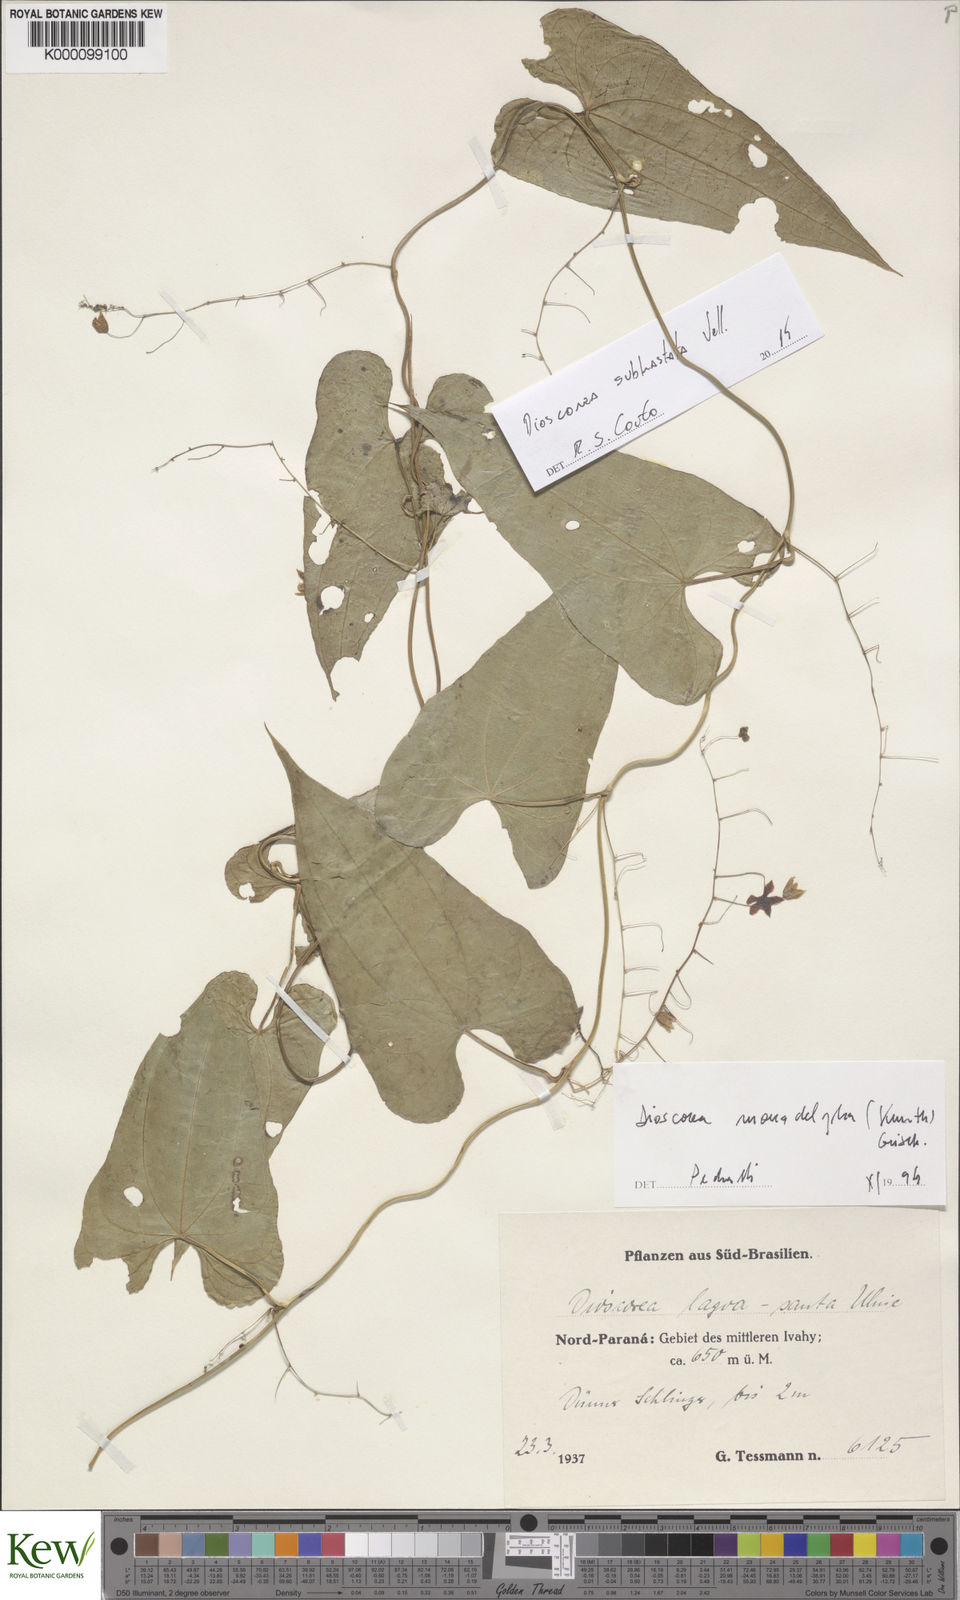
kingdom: Plantae
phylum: Tracheophyta
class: Liliopsida
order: Dioscoreales
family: Dioscoreaceae
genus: Dioscorea
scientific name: Dioscorea cienegensis
